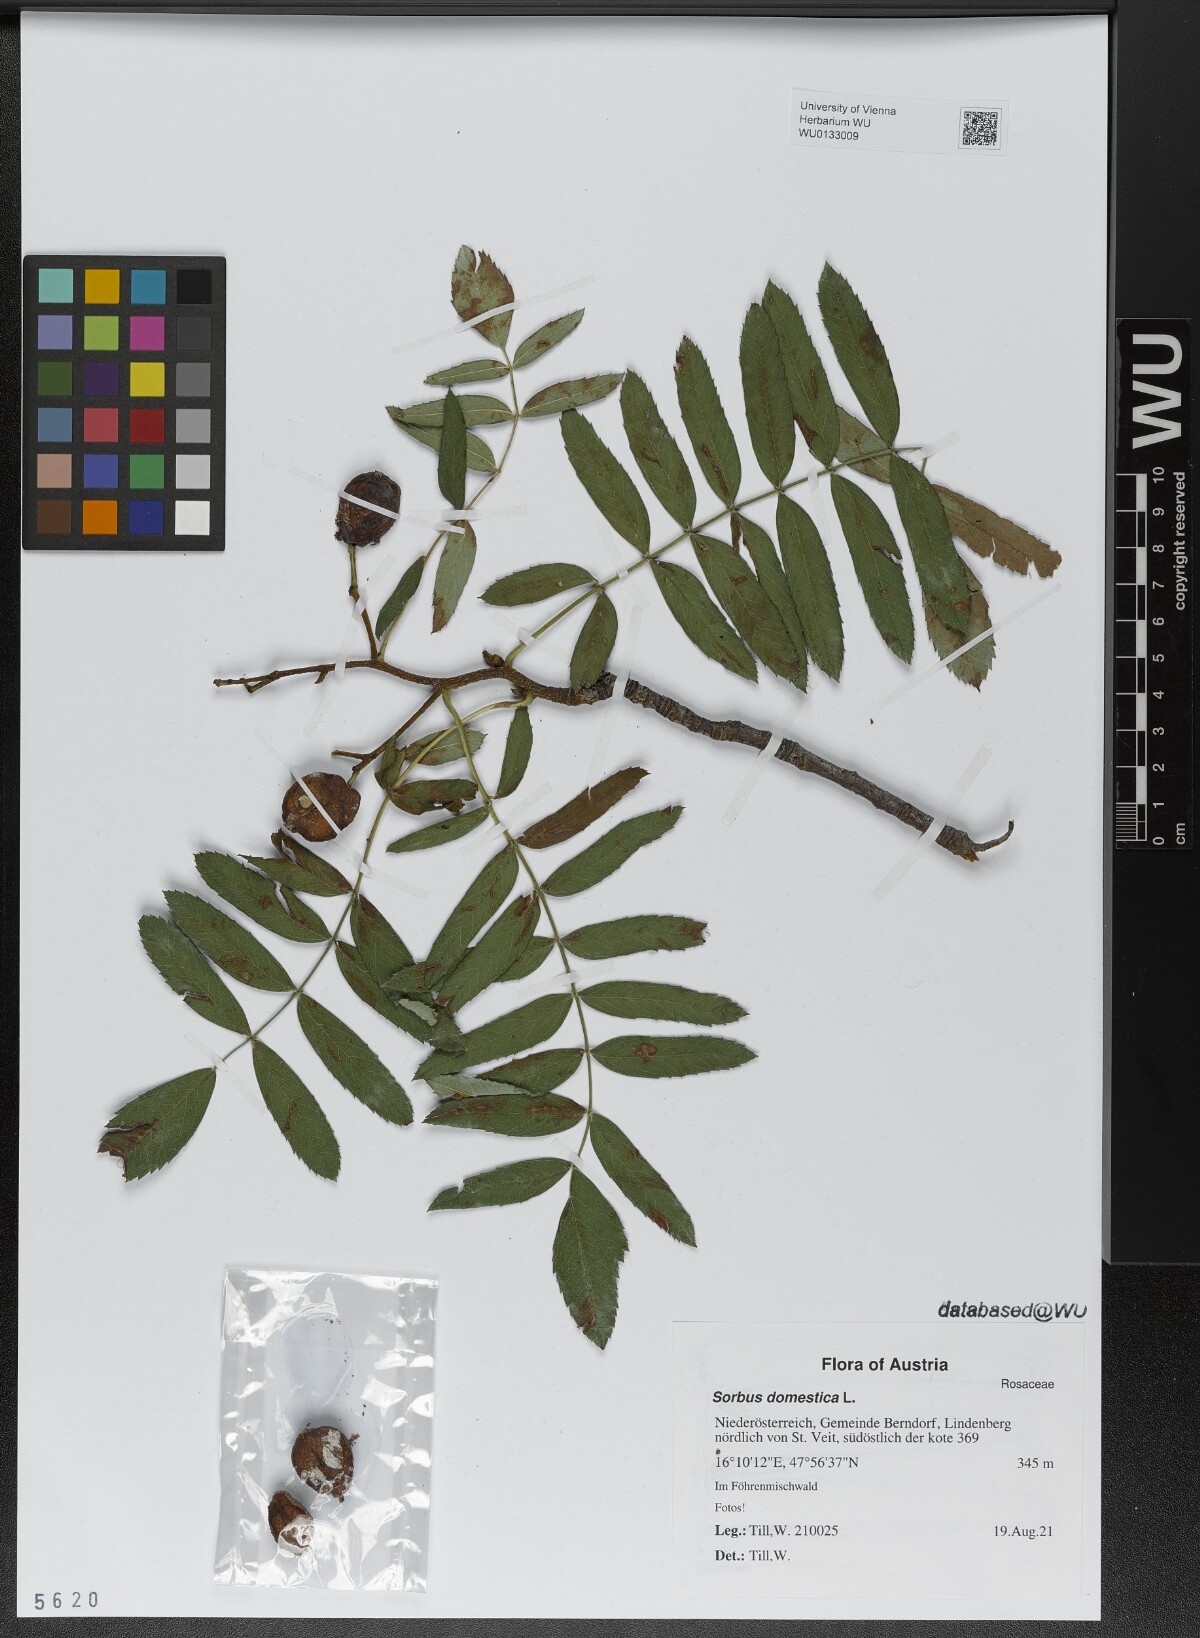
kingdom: Plantae
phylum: Tracheophyta
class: Magnoliopsida
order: Rosales
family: Rosaceae
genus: Cormus
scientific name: Cormus domestica
